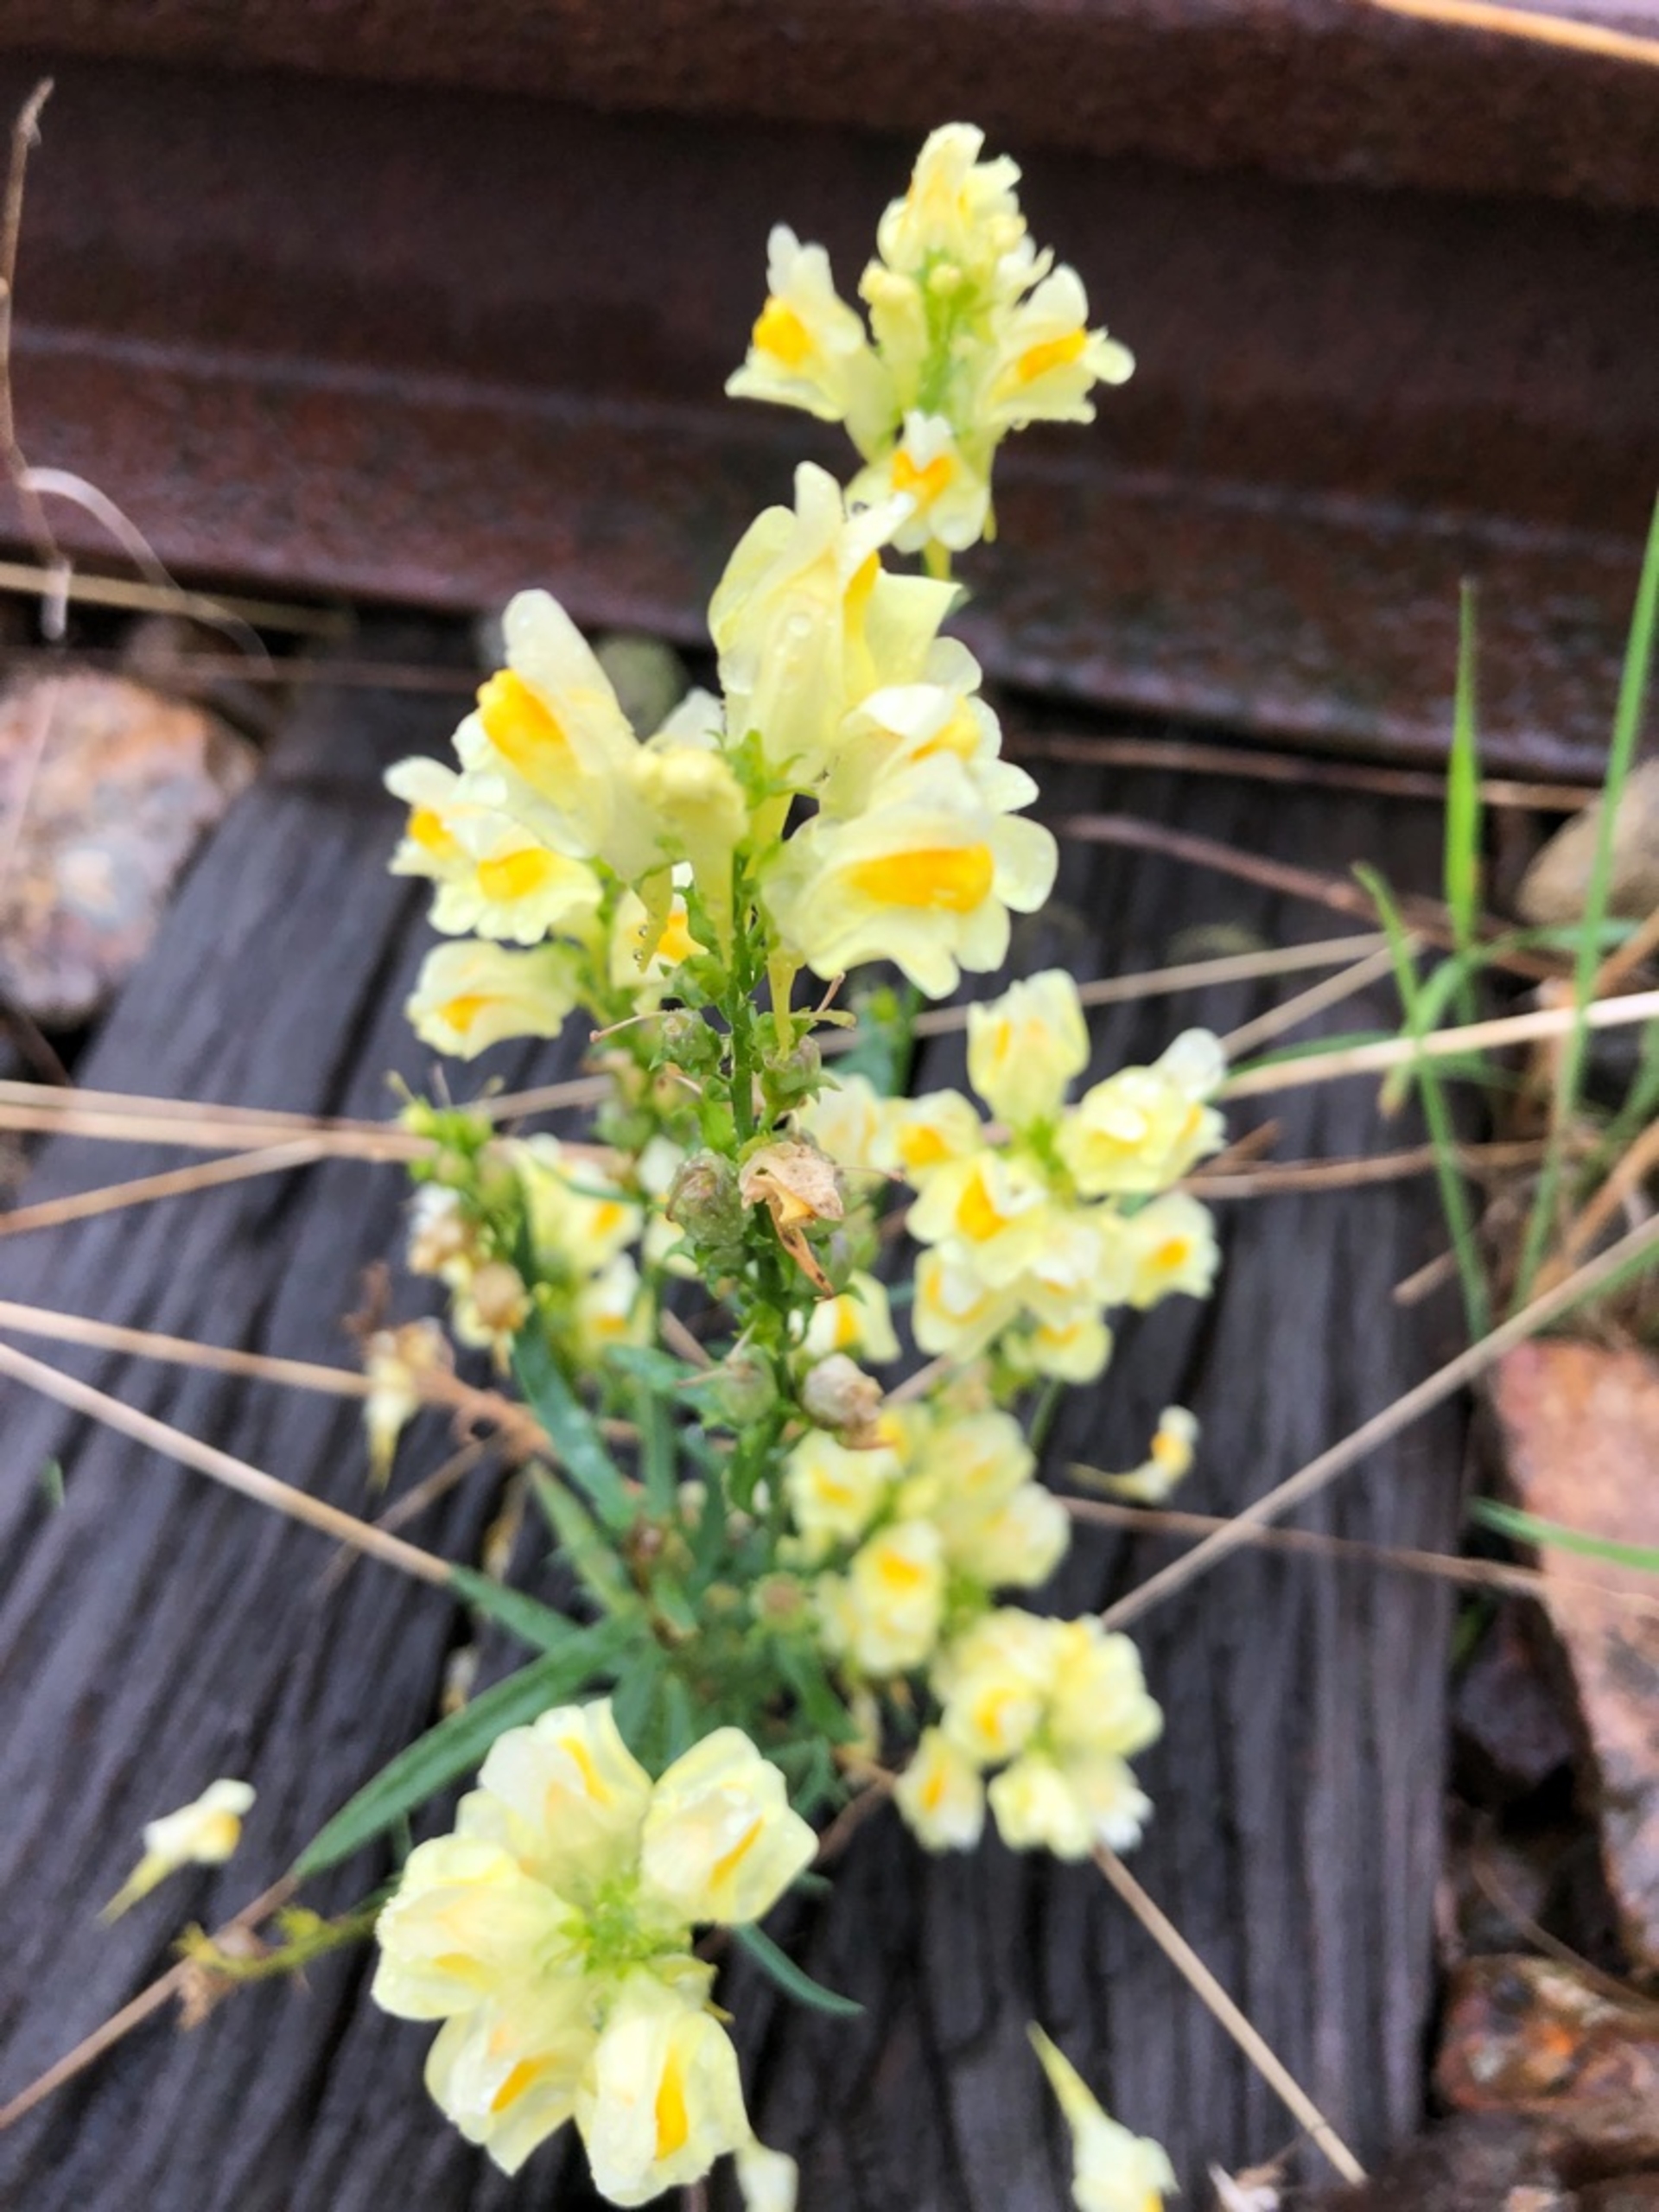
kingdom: Plantae
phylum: Tracheophyta
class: Magnoliopsida
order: Lamiales
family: Plantaginaceae
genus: Linaria
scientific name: Linaria vulgaris
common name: Almindelig torskemund
